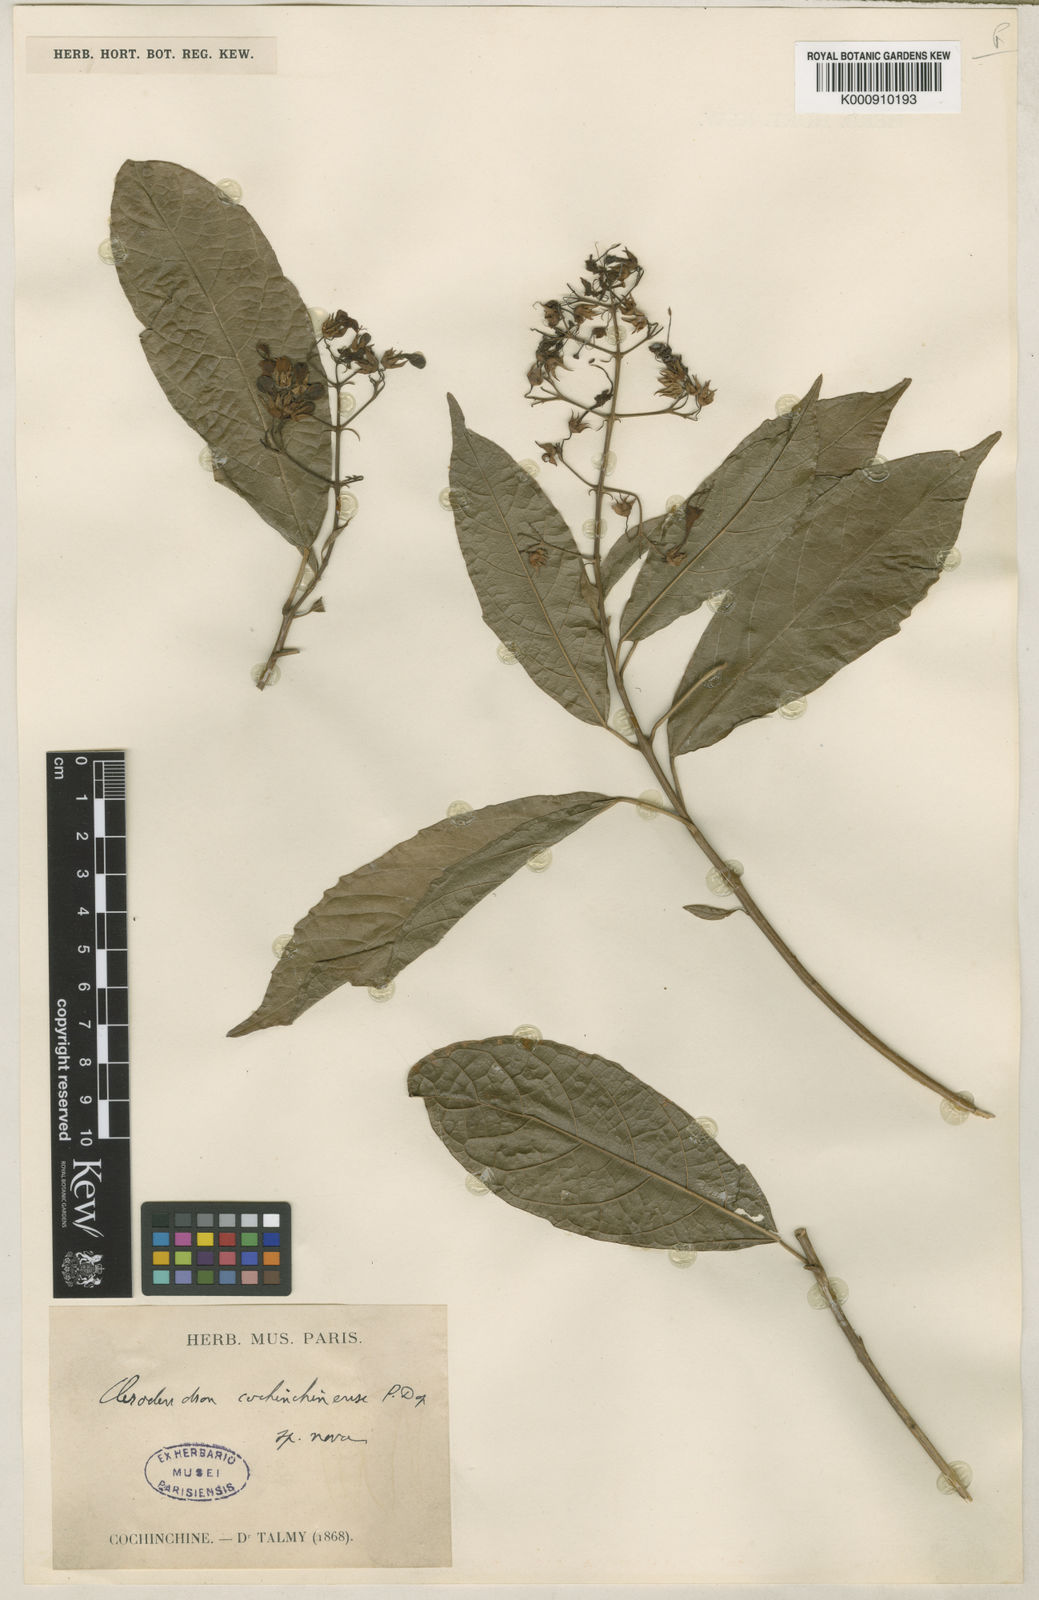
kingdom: Plantae
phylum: Tracheophyta
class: Magnoliopsida
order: Lamiales
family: Lamiaceae
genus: Clerodendrum
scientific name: Clerodendrum cochinchinense
